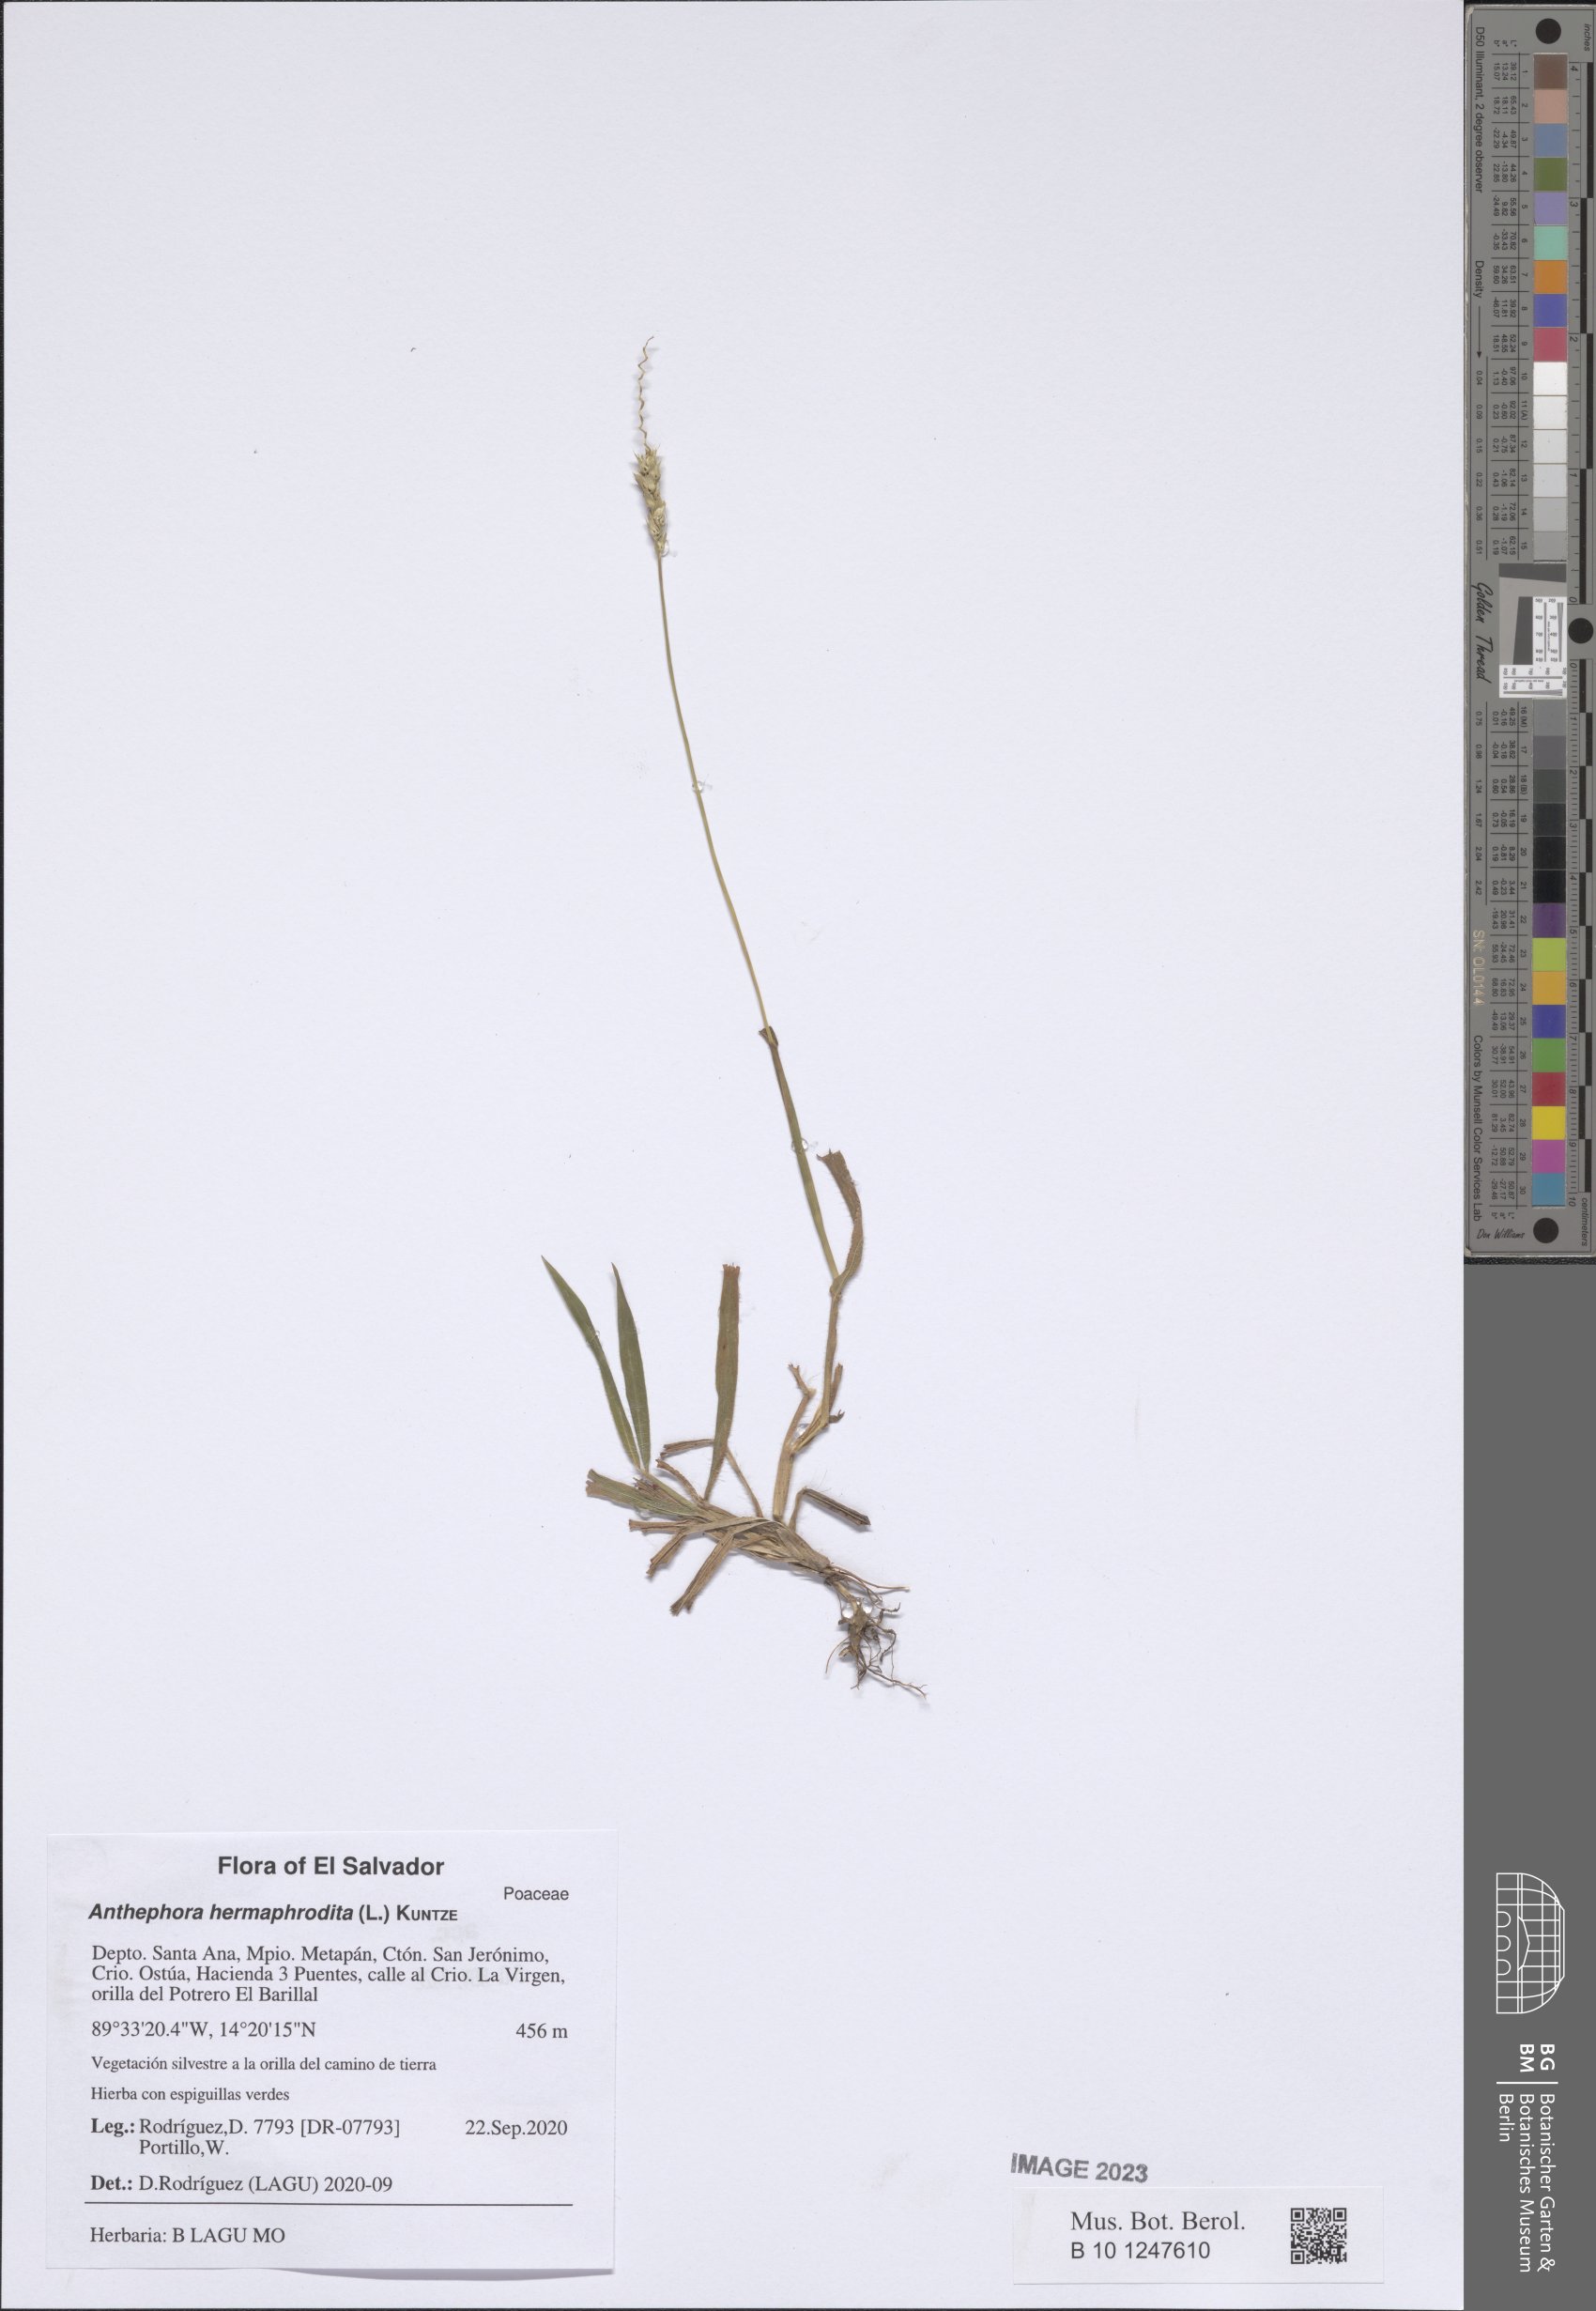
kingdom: Plantae
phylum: Tracheophyta
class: Liliopsida
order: Poales
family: Poaceae
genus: Anthephora
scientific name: Anthephora hermaphrodita
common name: Oldfield grass
